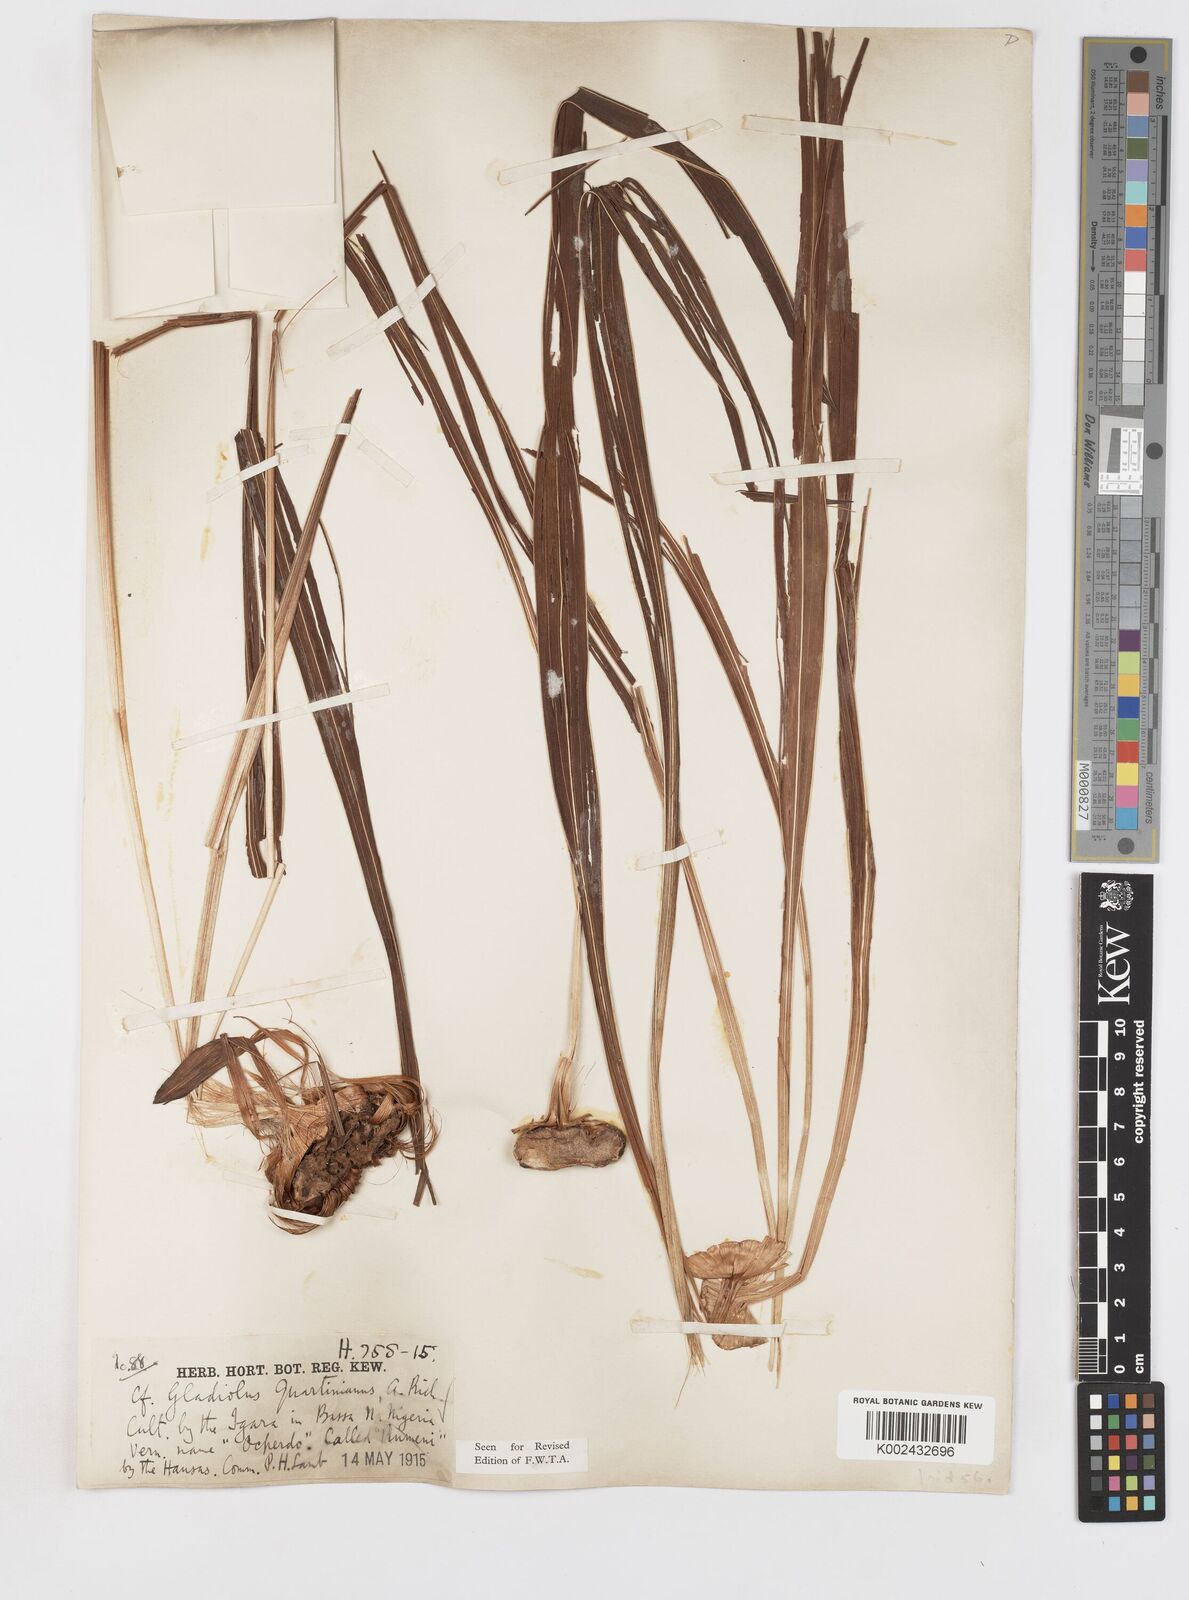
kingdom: Plantae
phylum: Tracheophyta
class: Liliopsida
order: Asparagales
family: Iridaceae
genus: Gladiolus
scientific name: Gladiolus dalenii
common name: Cornflag
